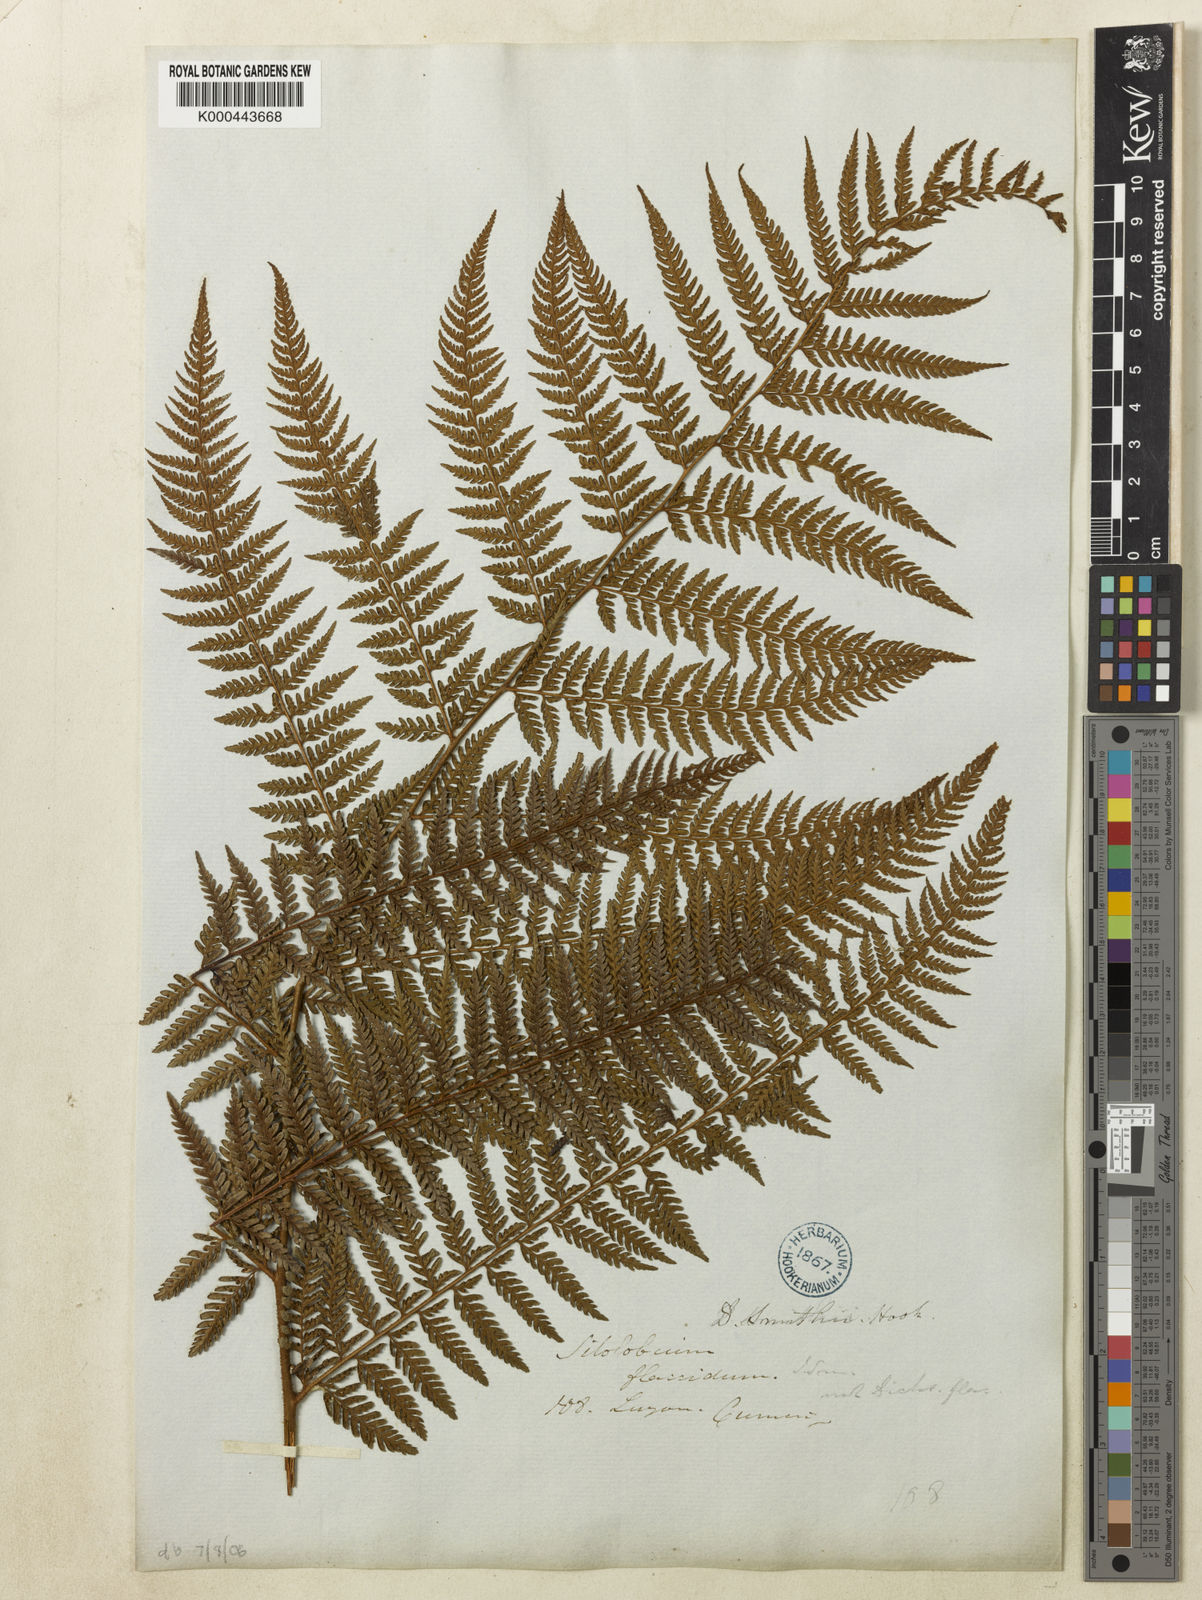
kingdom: Plantae
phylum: Tracheophyta
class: Polypodiopsida
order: Polypodiales
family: Dennstaedtiaceae
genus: Microlepia
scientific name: Microlepia smithii
